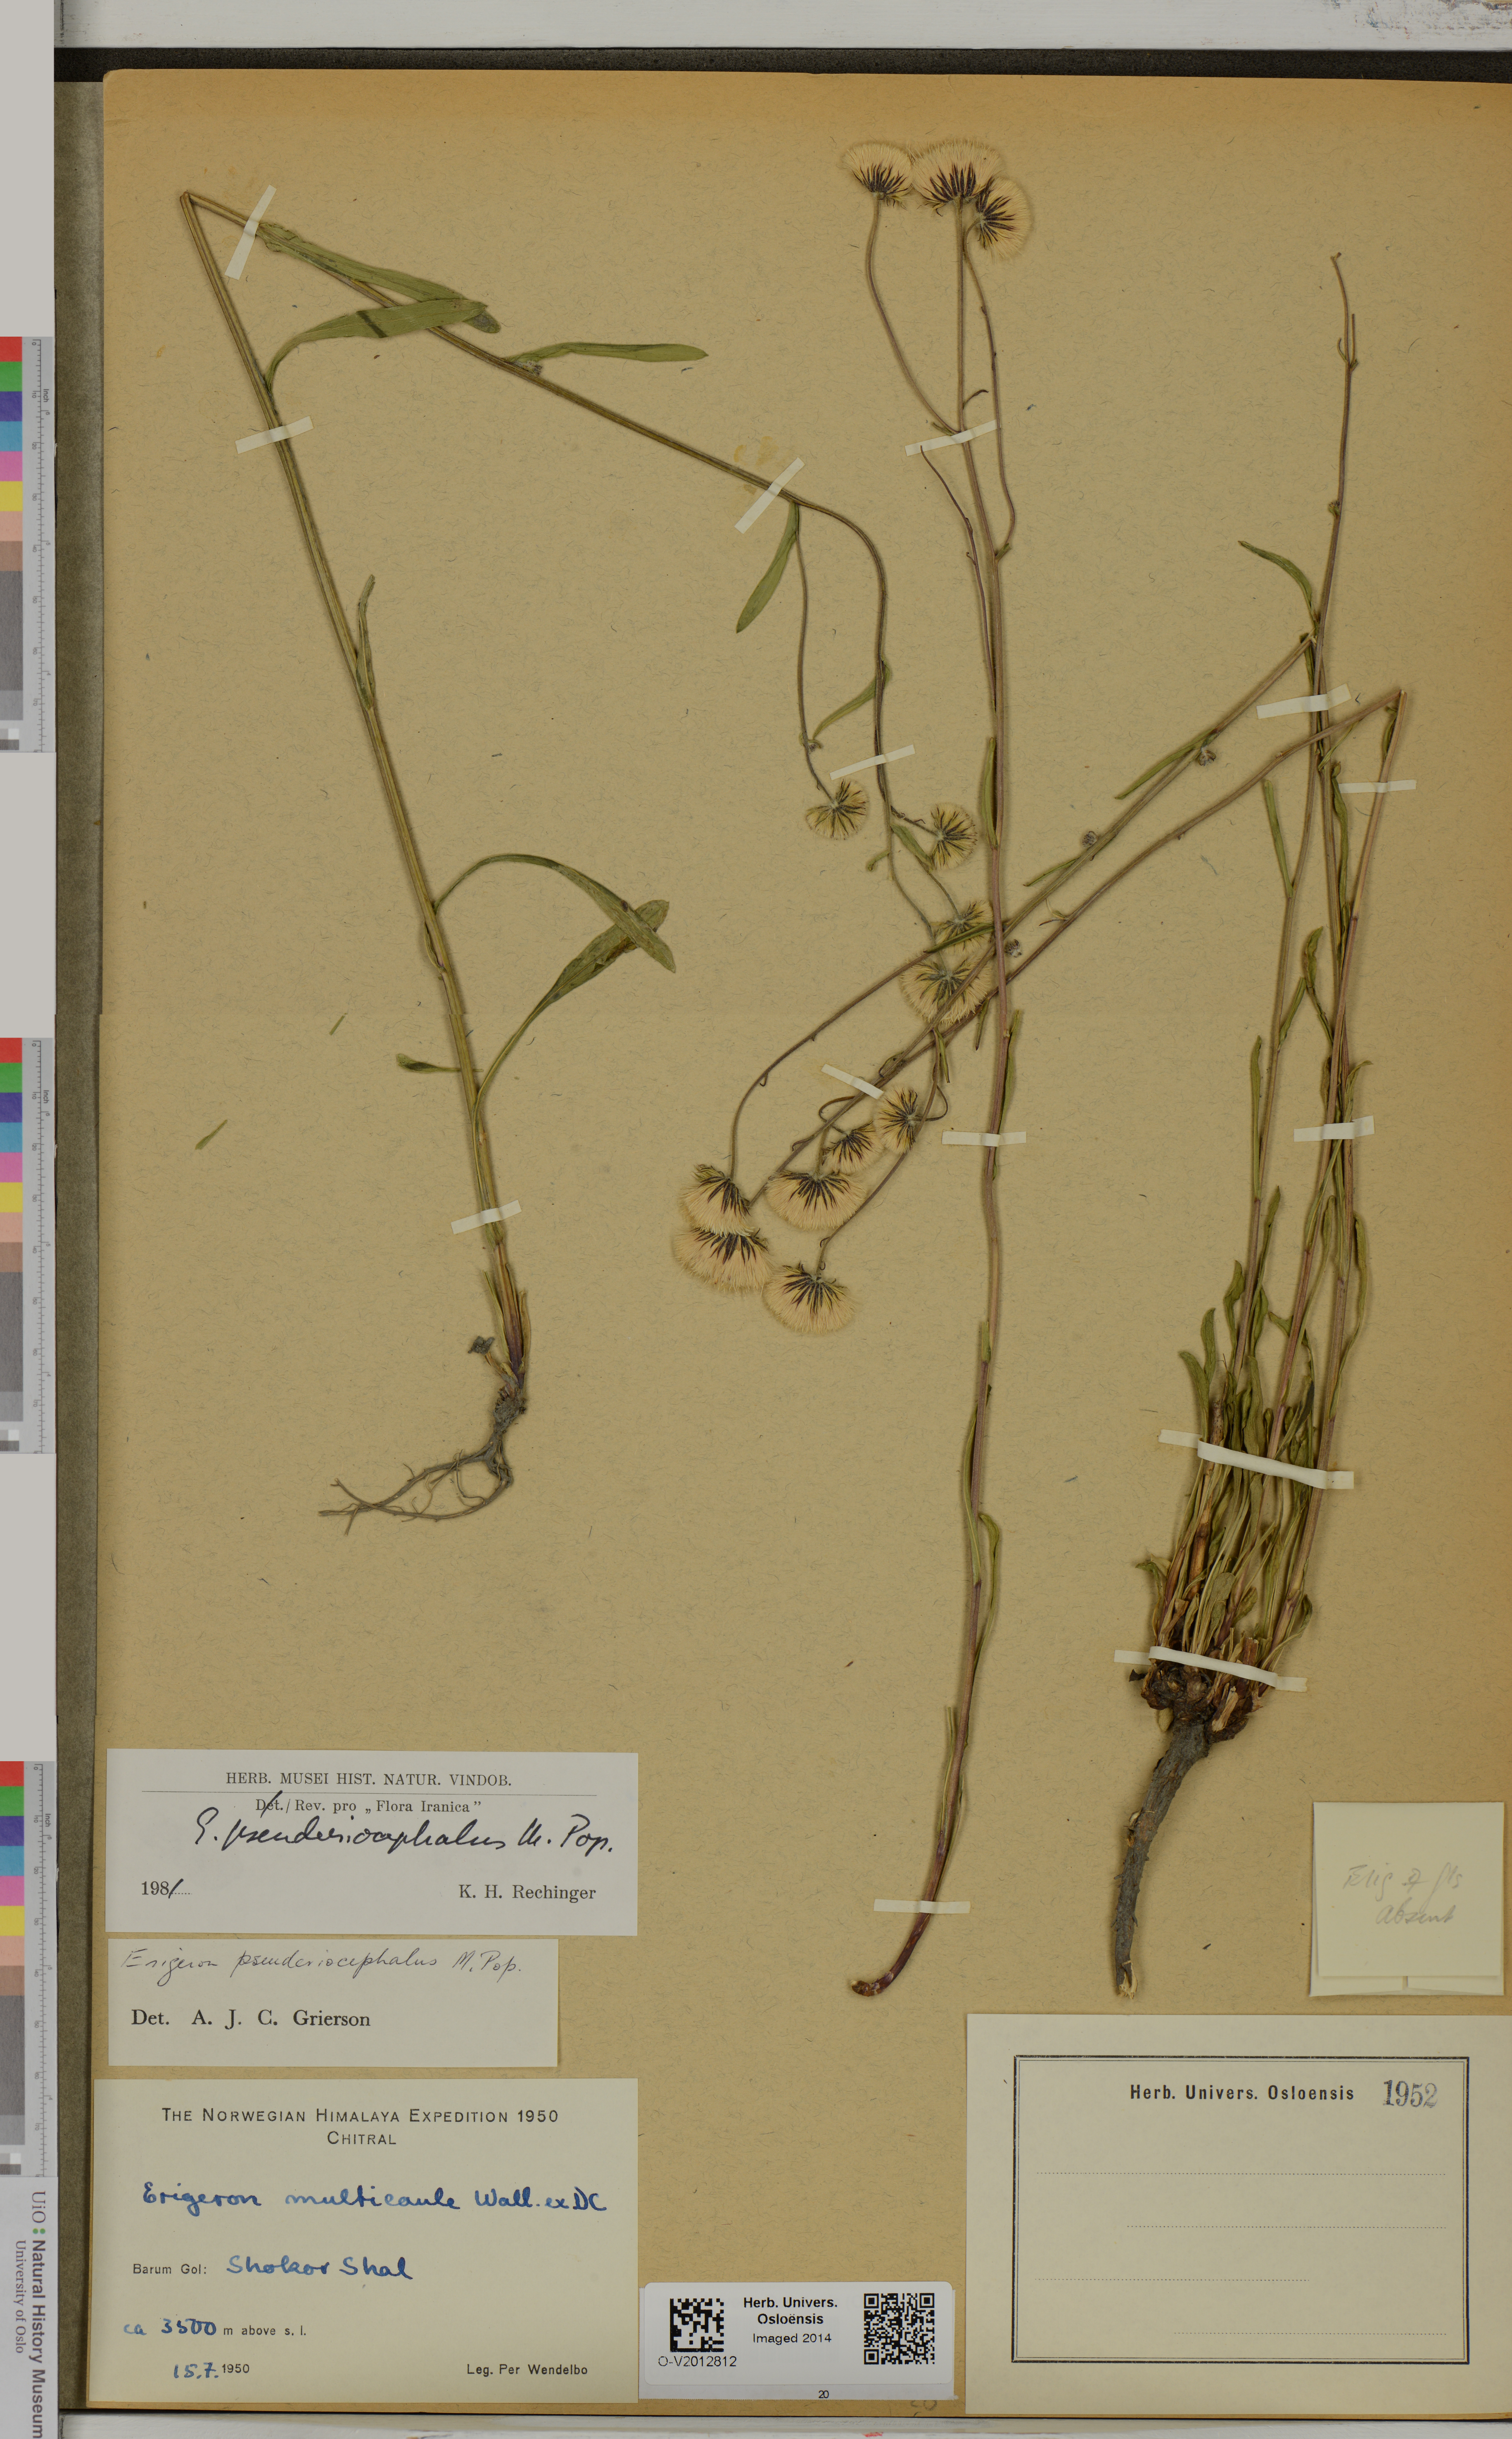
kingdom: Plantae
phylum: Tracheophyta
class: Magnoliopsida
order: Asterales
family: Asteraceae
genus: Erigeron
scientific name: Erigeron pseuderiocephalus
